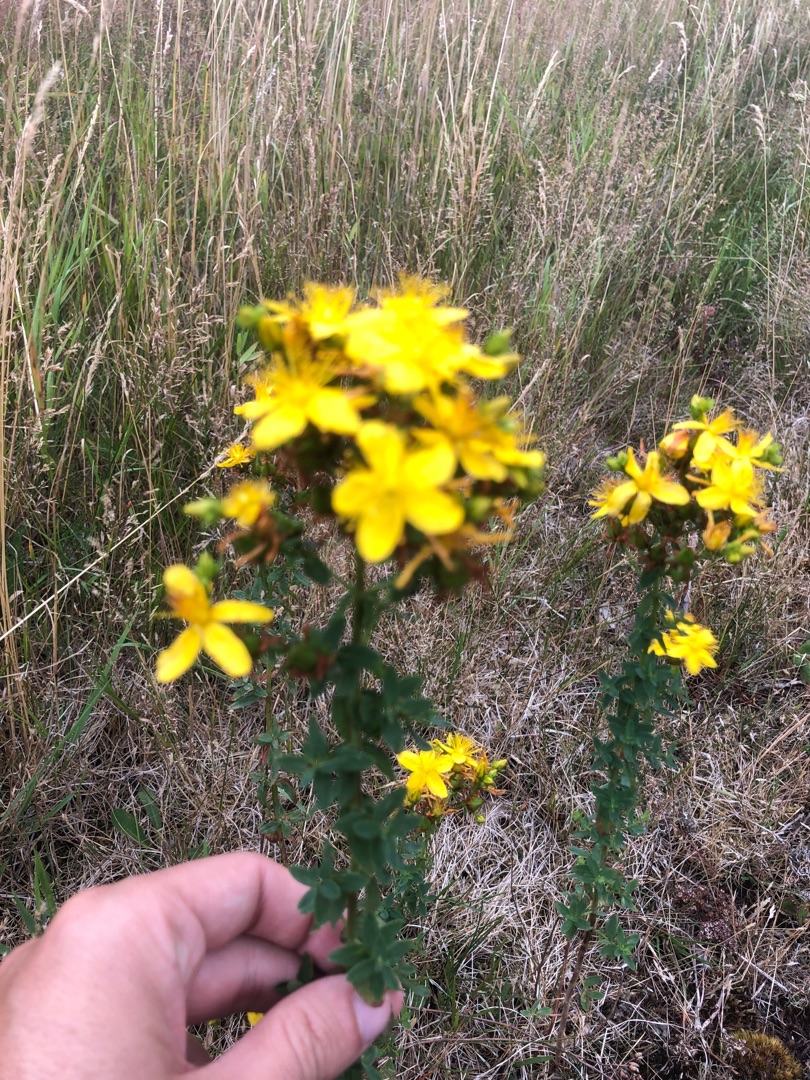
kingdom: Plantae
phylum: Tracheophyta
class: Magnoliopsida
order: Malpighiales
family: Hypericaceae
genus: Hypericum
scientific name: Hypericum maculatum
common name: Kantet perikon
